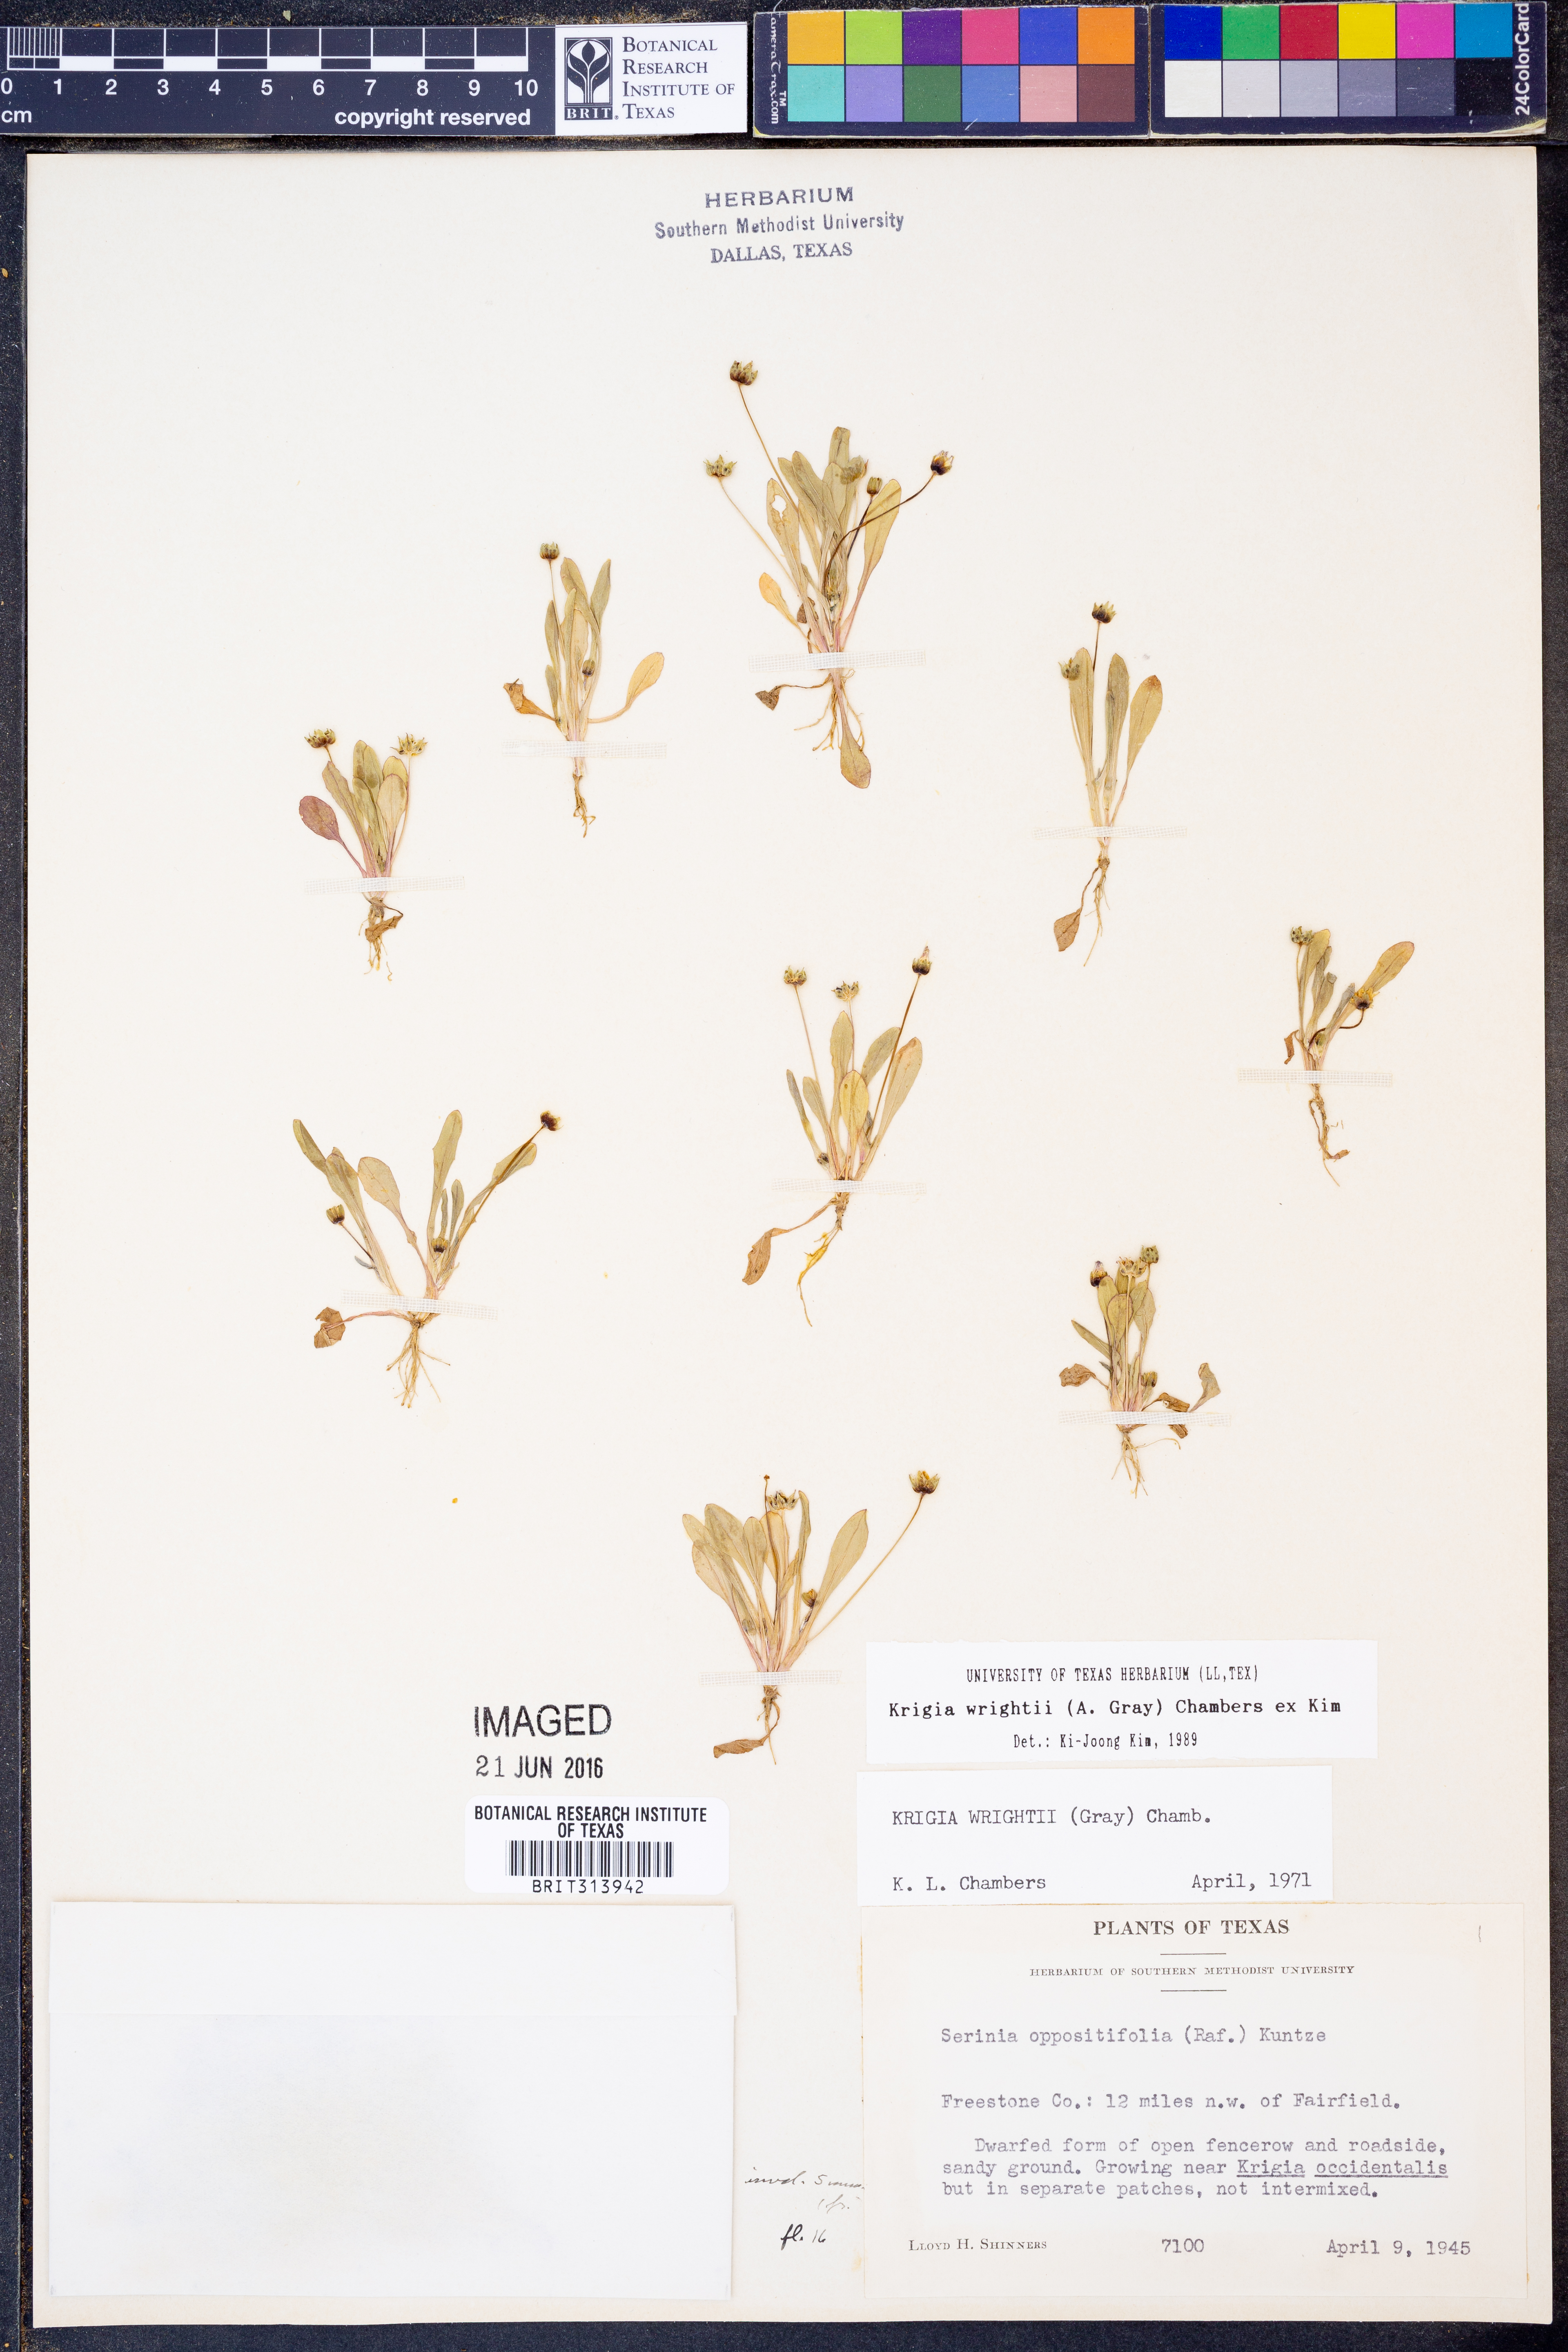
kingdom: Plantae
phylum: Tracheophyta
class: Magnoliopsida
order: Asterales
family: Asteraceae
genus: Krigia
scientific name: Krigia wrightii
